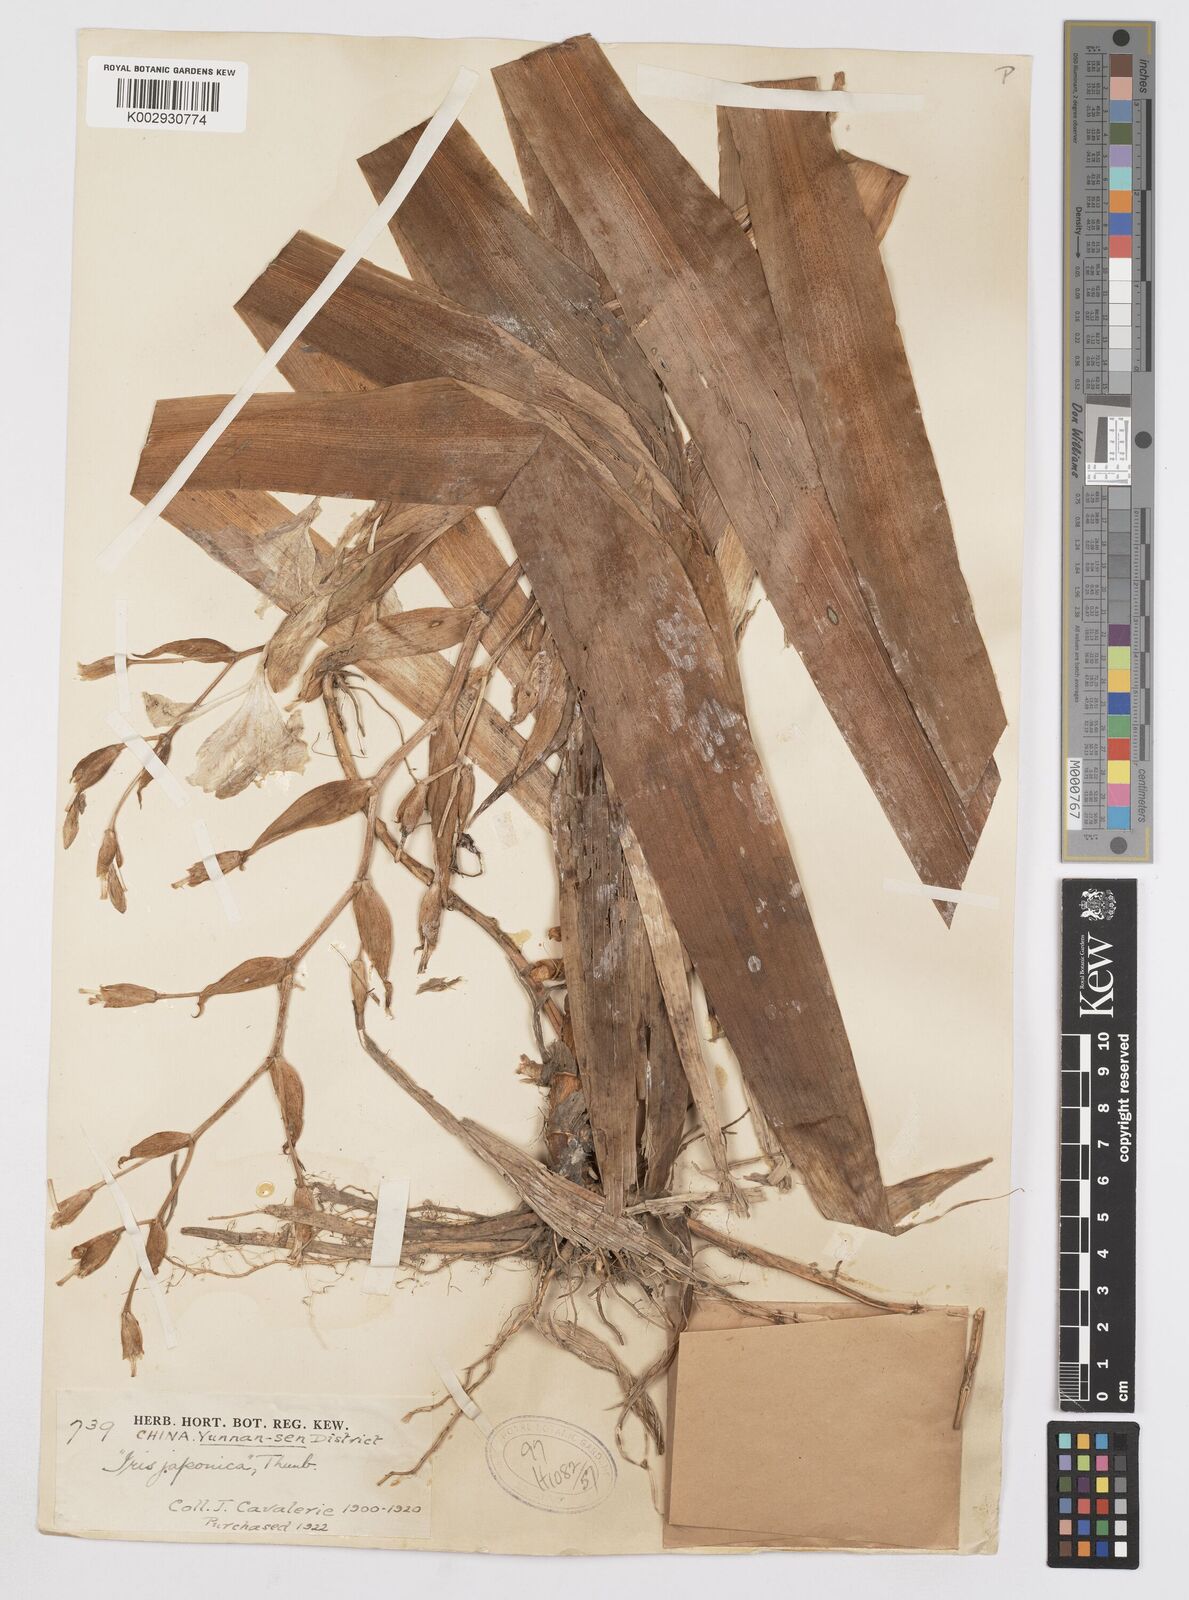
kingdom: Plantae
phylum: Tracheophyta
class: Liliopsida
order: Asparagales
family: Iridaceae
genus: Iris
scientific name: Iris japonica
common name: Butterfly-flower
